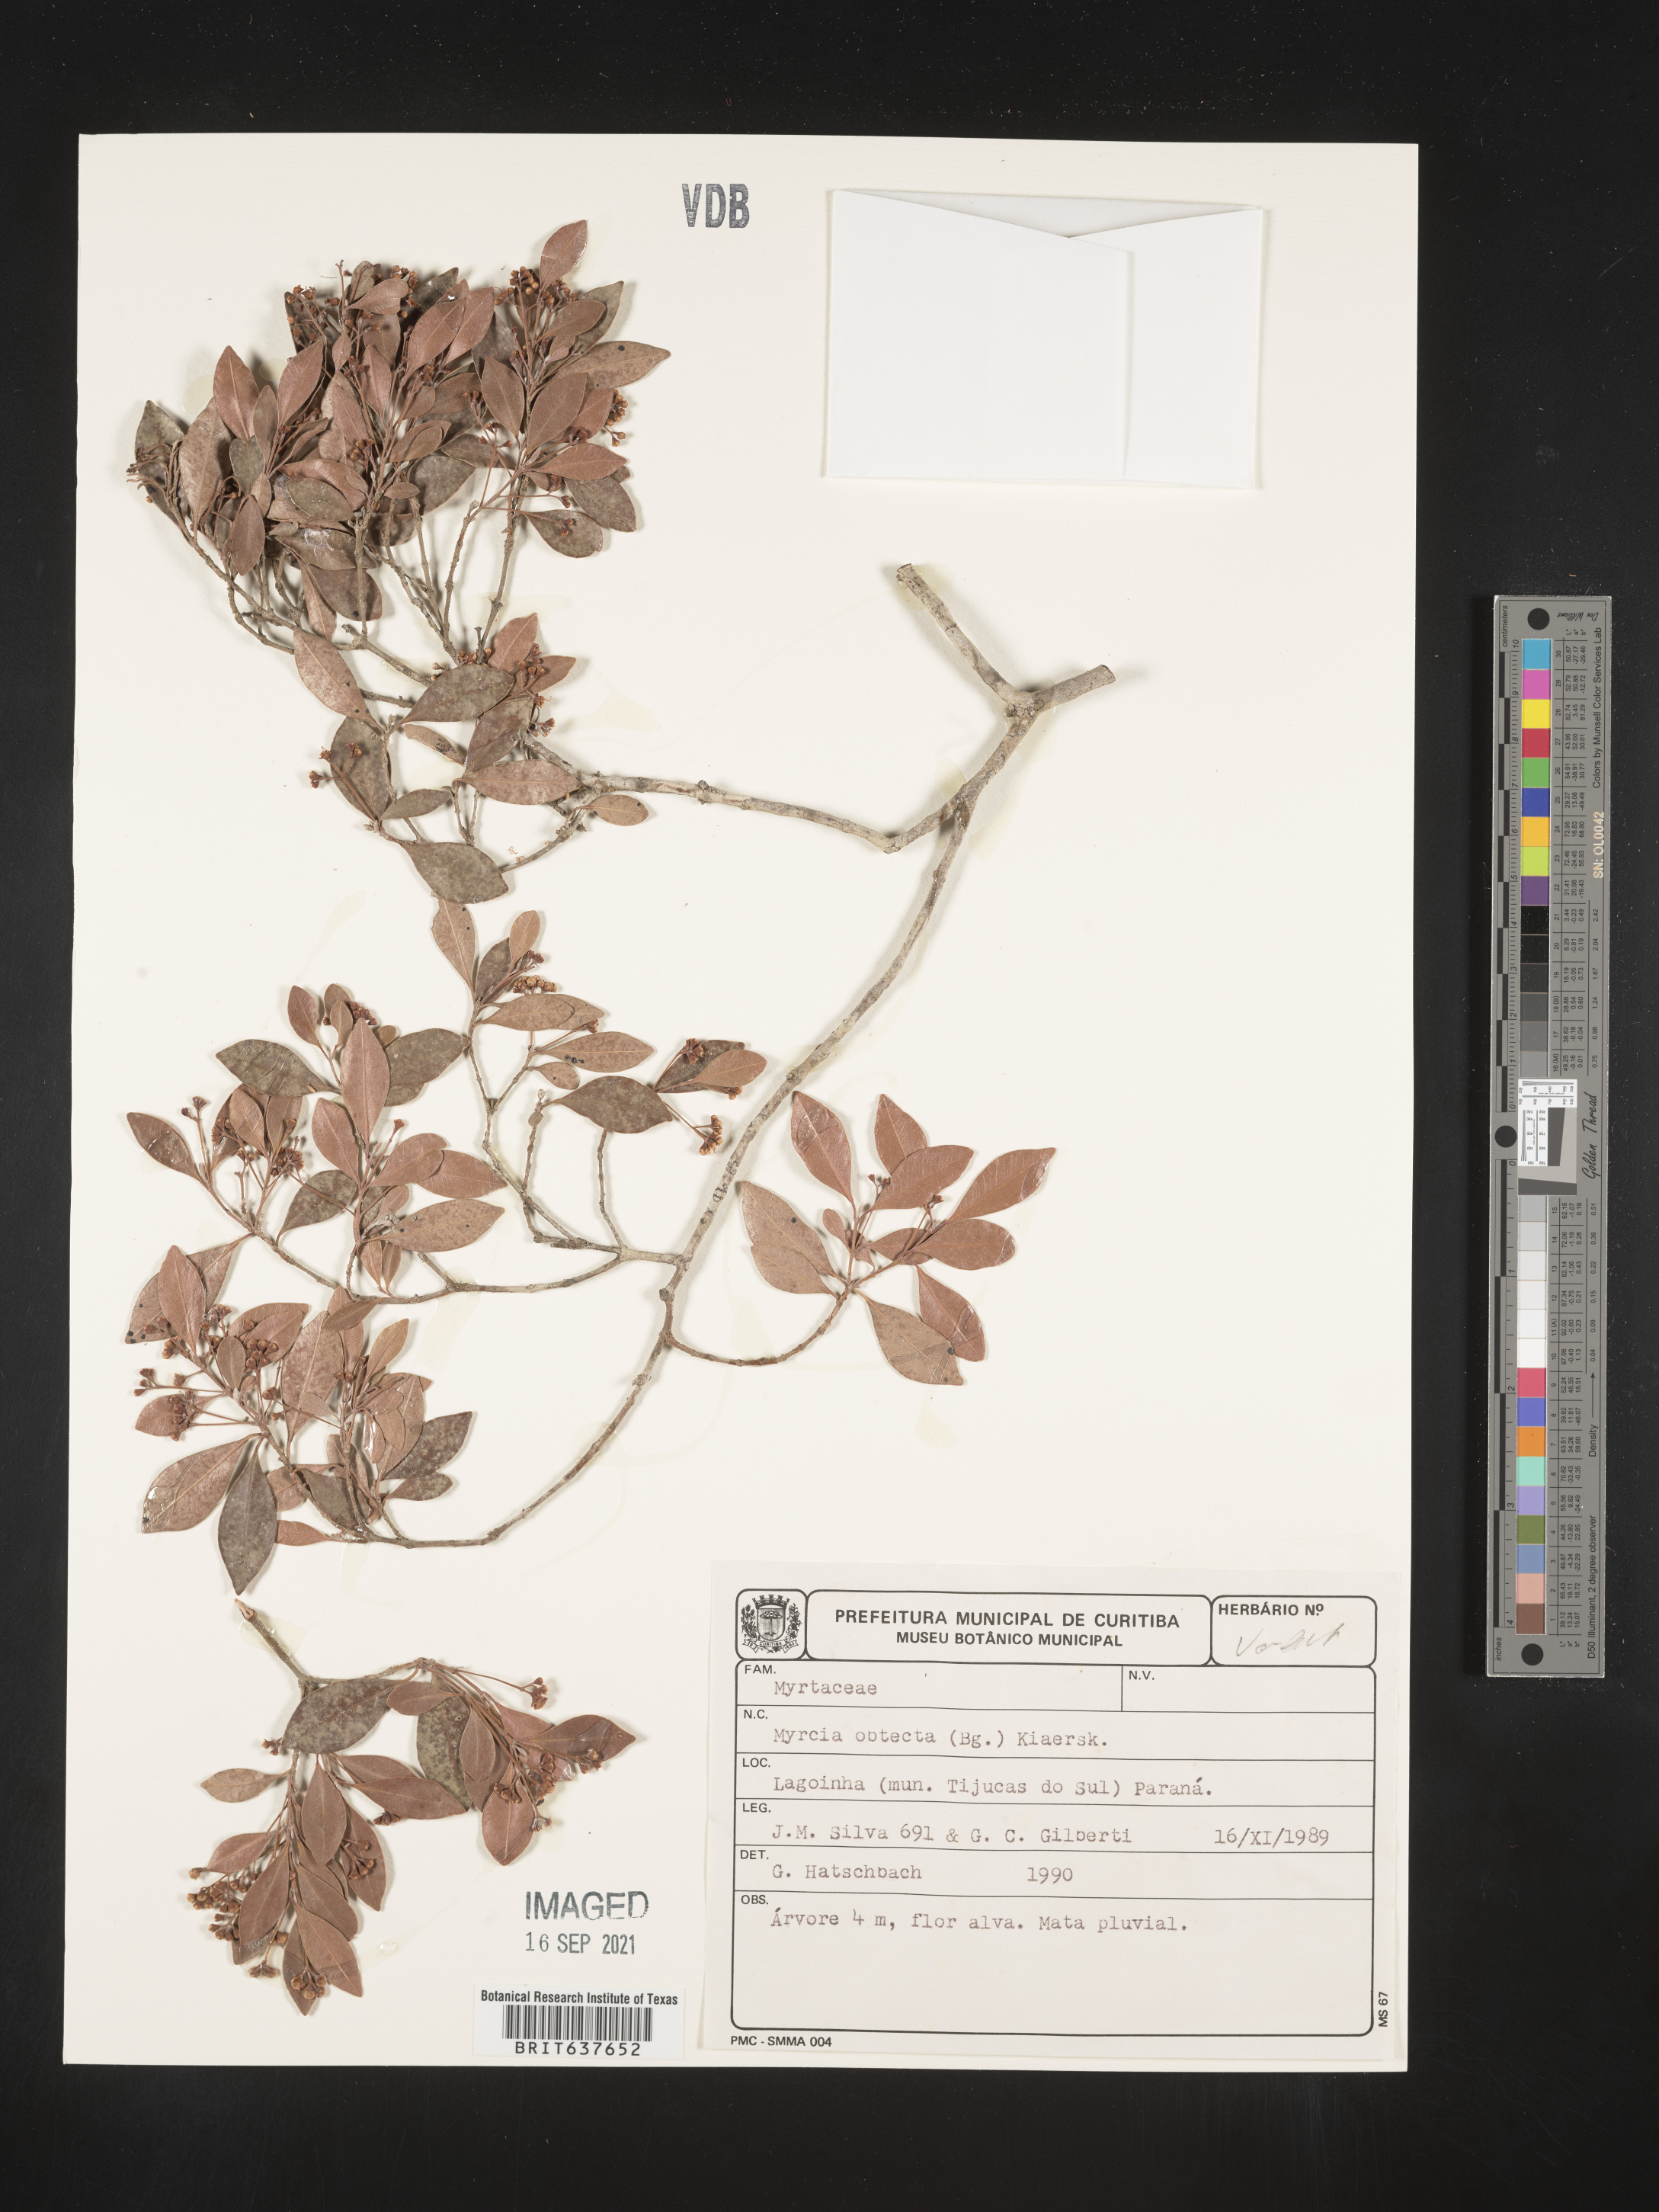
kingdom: Plantae
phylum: Tracheophyta
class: Magnoliopsida
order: Myrtales
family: Myrtaceae
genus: Myrcia
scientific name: Myrcia
